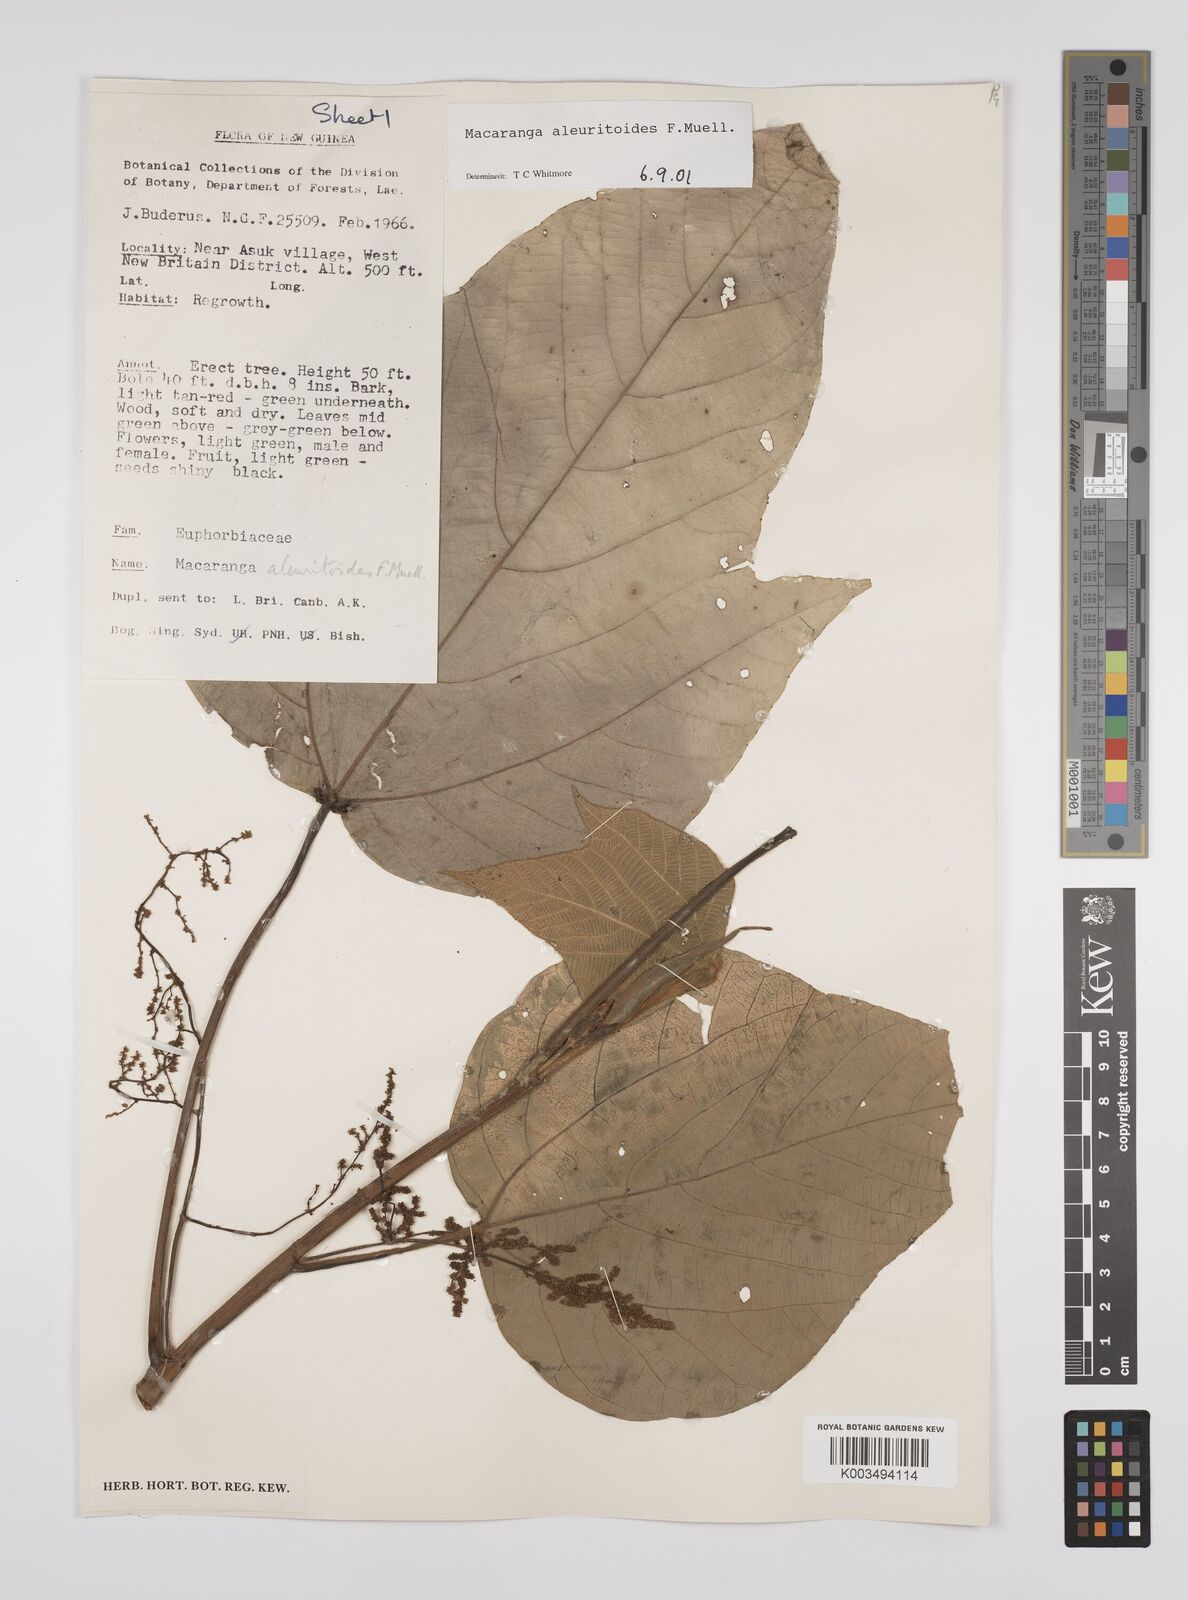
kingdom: Plantae
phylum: Tracheophyta
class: Magnoliopsida
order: Malpighiales
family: Euphorbiaceae
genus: Macaranga
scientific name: Macaranga aleuritoides
